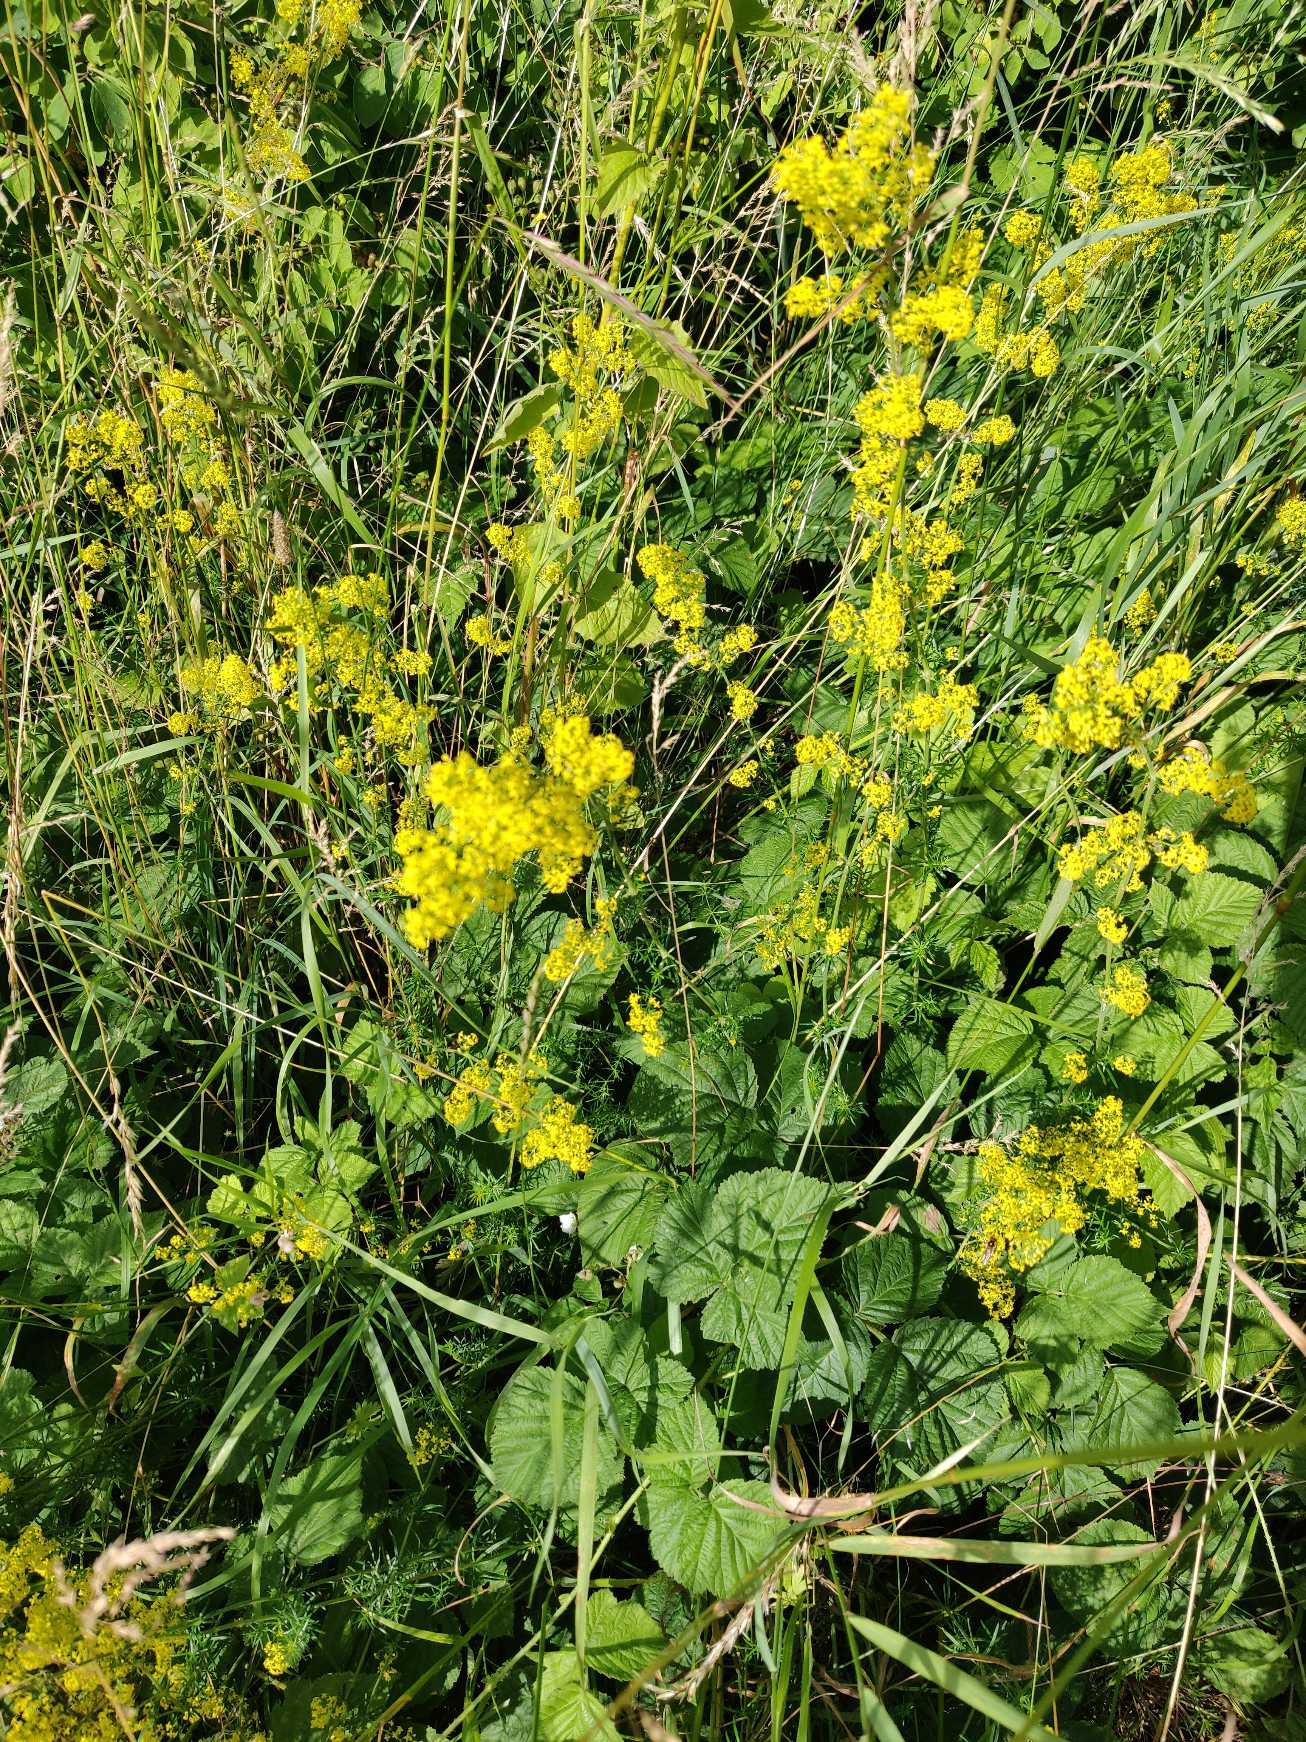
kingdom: Plantae
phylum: Tracheophyta
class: Magnoliopsida
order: Gentianales
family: Rubiaceae
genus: Galium
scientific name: Galium verum
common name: Gul snerre
